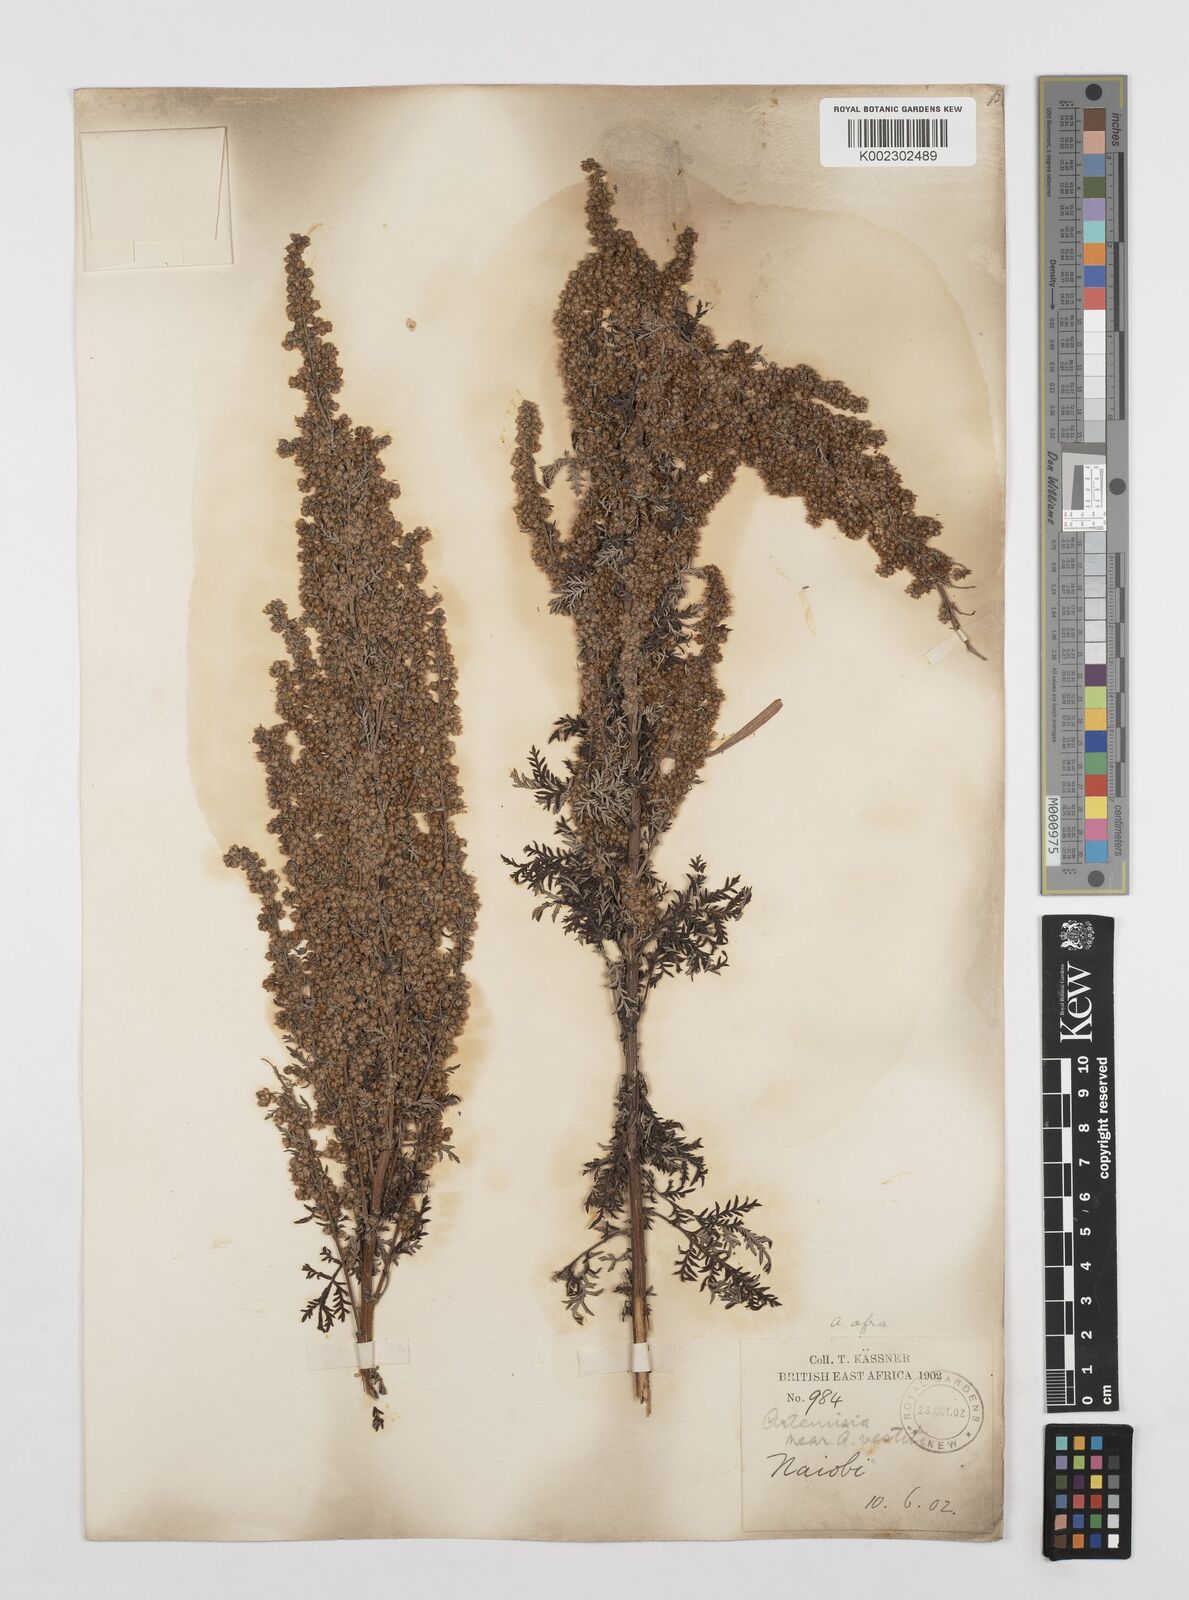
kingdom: Plantae
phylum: Tracheophyta
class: Magnoliopsida
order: Asterales
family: Asteraceae
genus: Artemisia
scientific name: Artemisia afra
